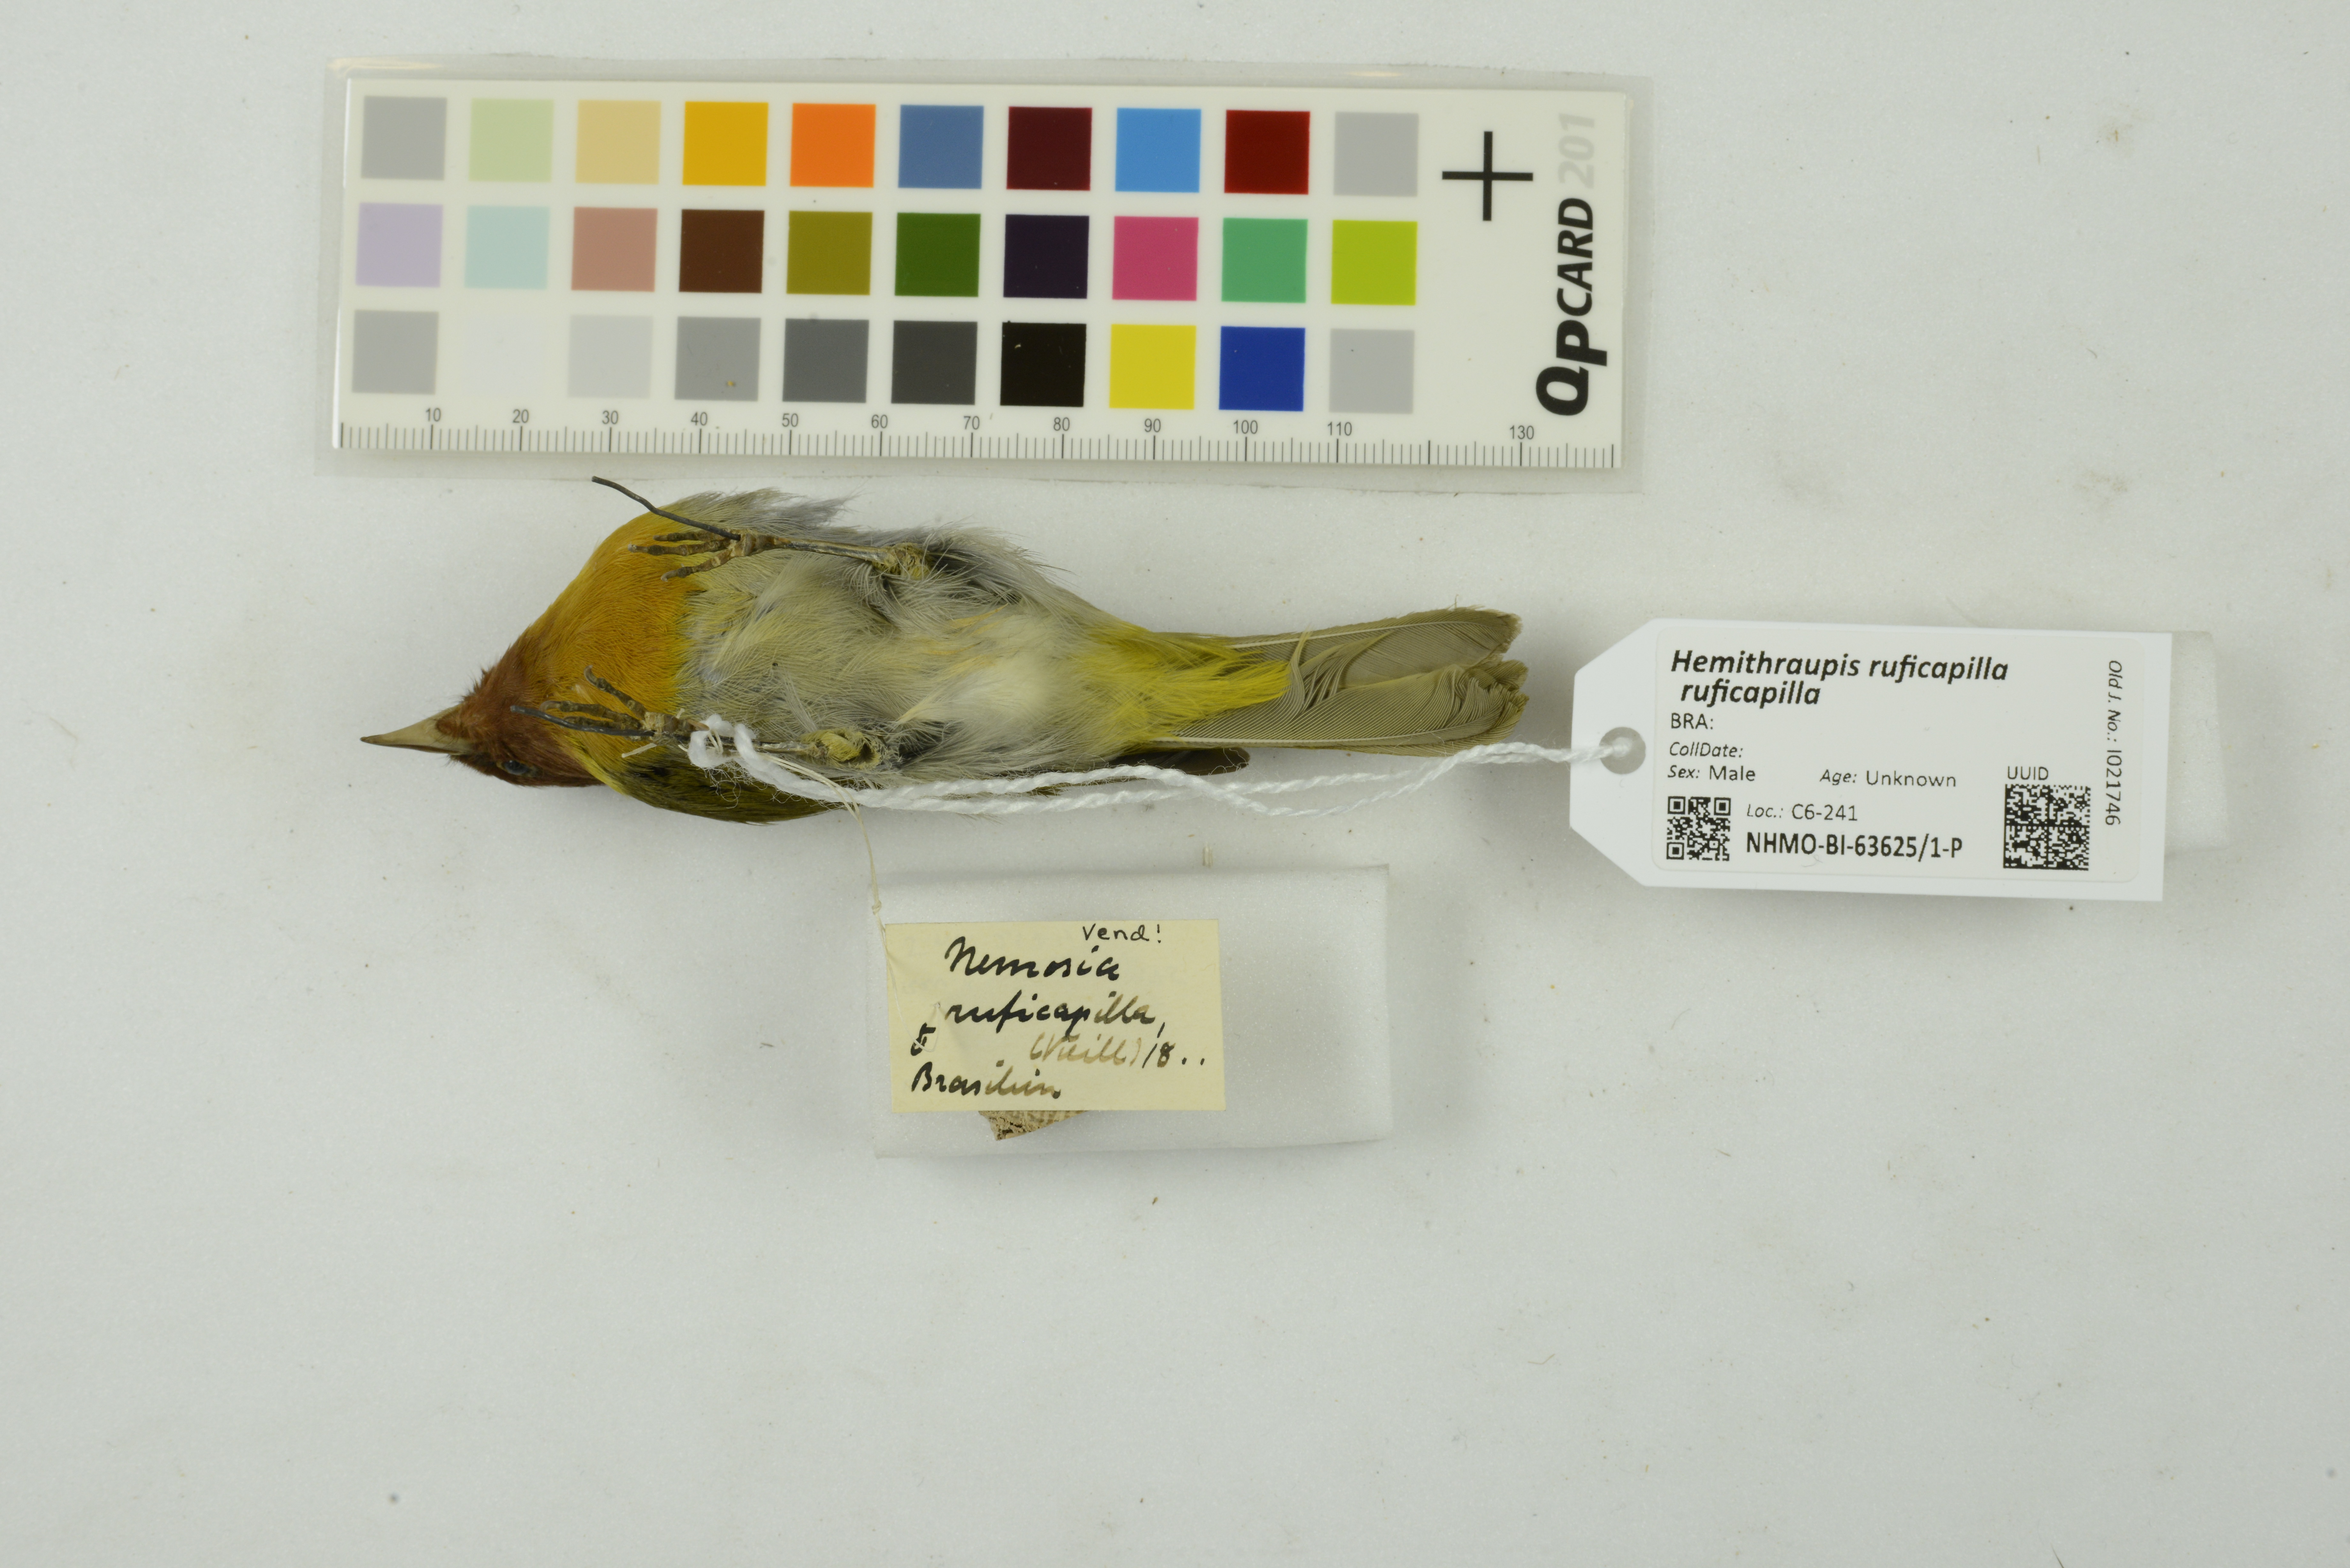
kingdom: Animalia
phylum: Chordata
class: Aves
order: Passeriformes
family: Thraupidae
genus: Hemithraupis
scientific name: Hemithraupis ruficapilla
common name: Rufous-headed tanager
